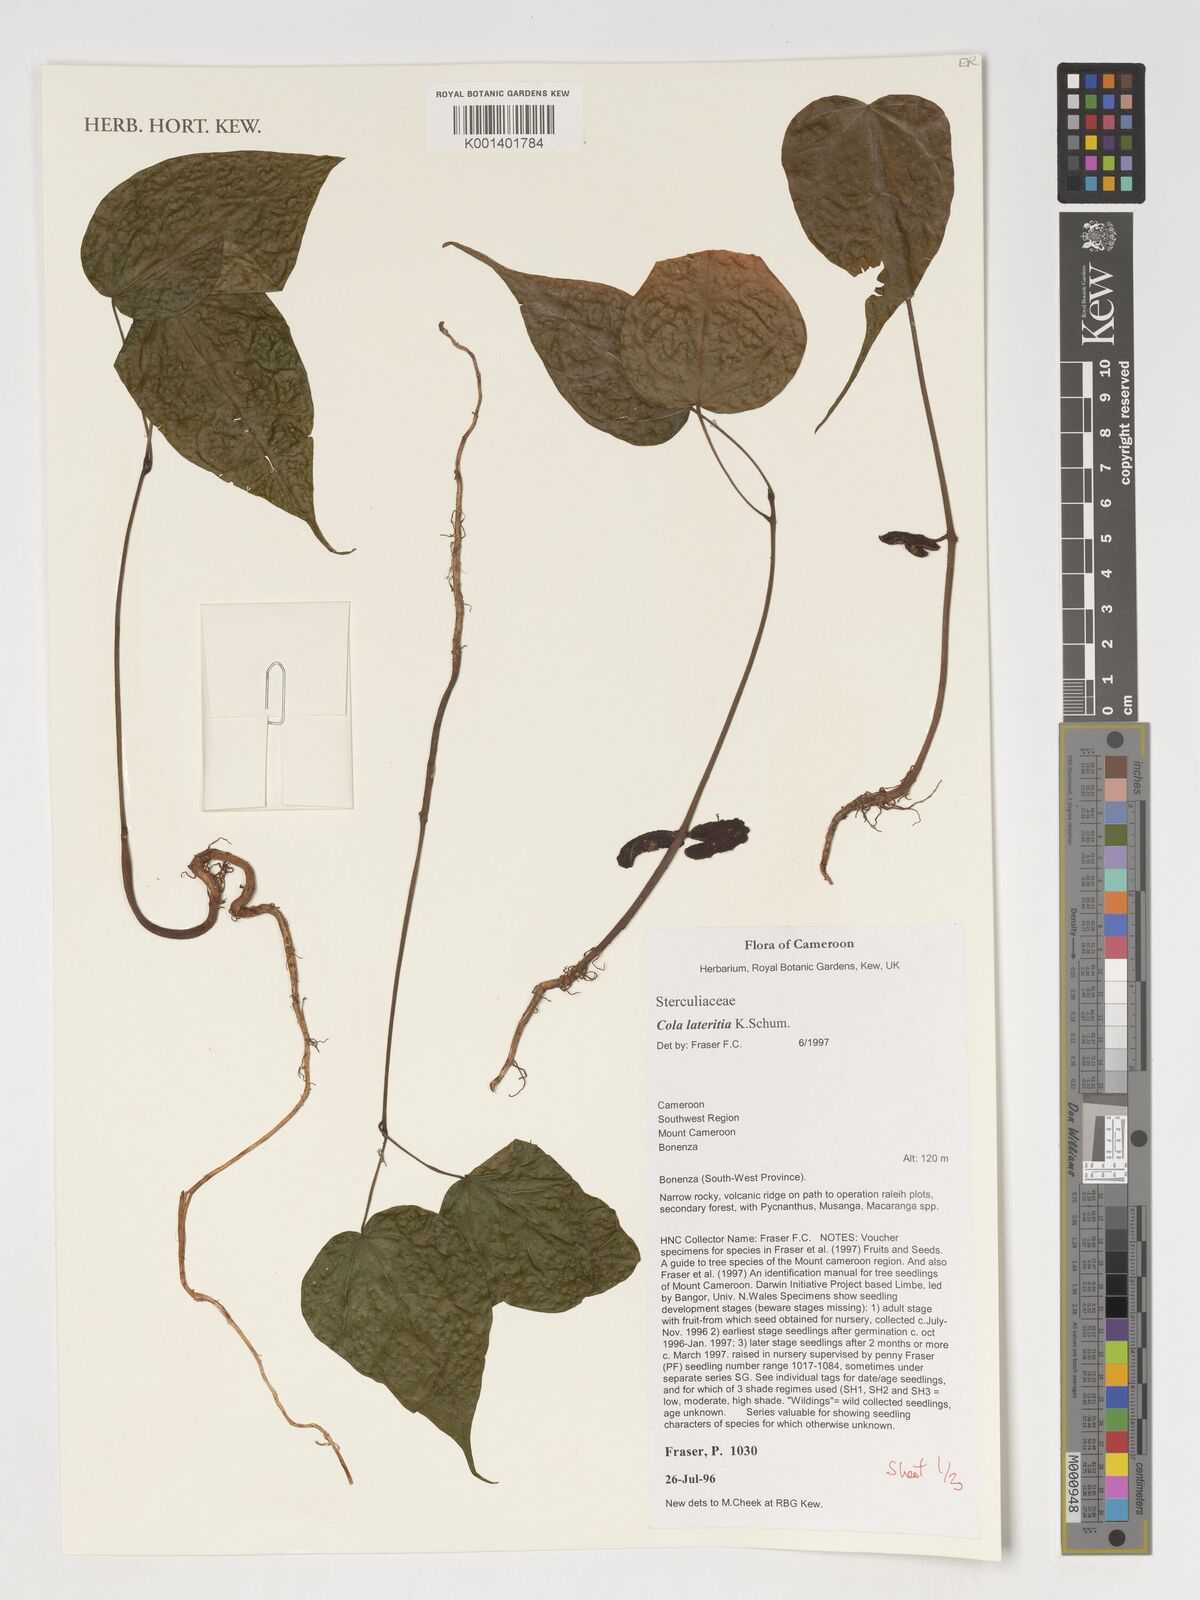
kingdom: Plantae
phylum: Tracheophyta
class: Magnoliopsida
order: Malvales
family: Malvaceae
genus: Cola
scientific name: Cola lateritia
